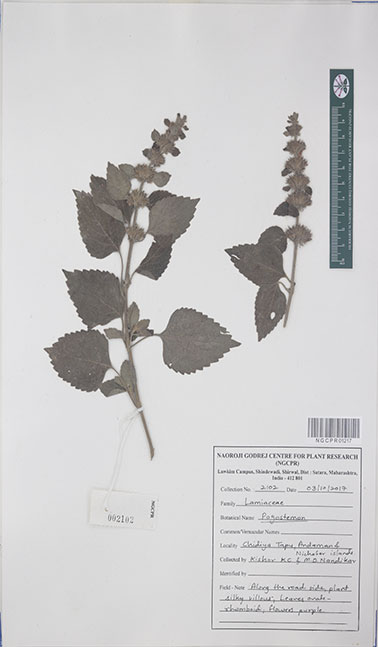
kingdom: Plantae
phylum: Tracheophyta
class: Magnoliopsida
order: Gentianales
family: Rubiaceae
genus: Exallage
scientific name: Exallage paradoxa
